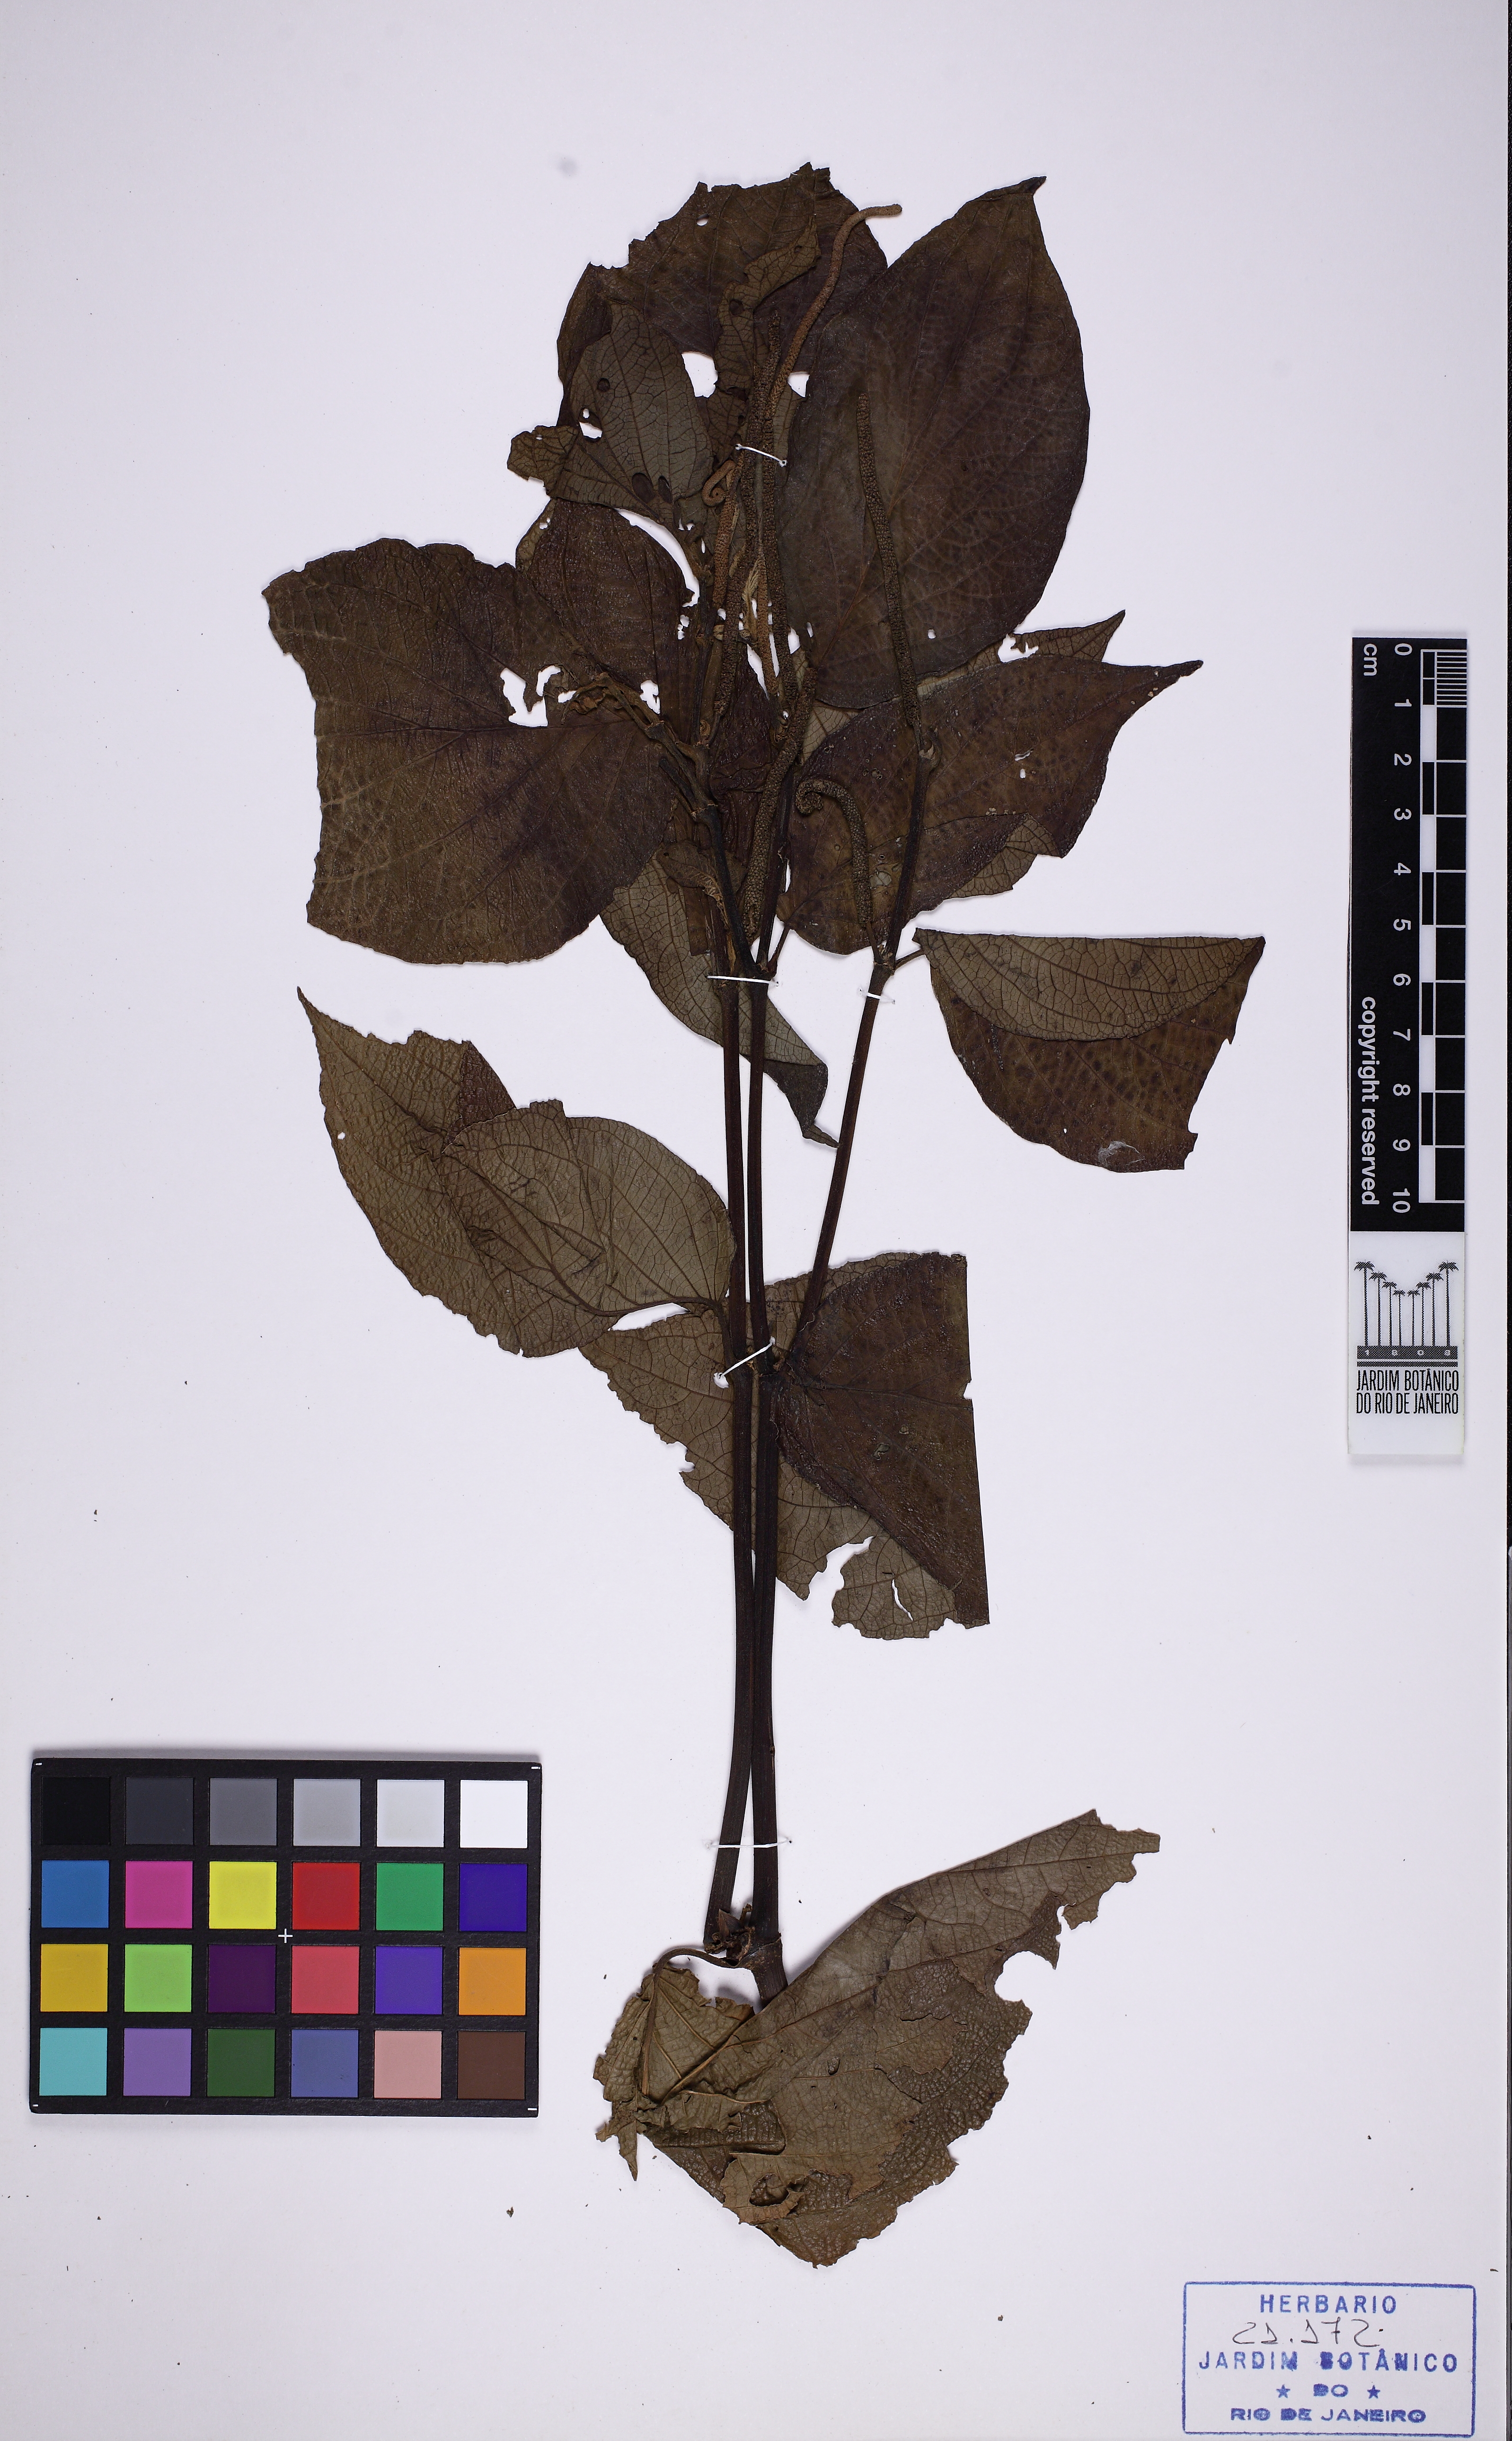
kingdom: Plantae
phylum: Tracheophyta
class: Magnoliopsida
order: Piperales
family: Piperaceae
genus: Piper
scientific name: Piper cuyabanum
